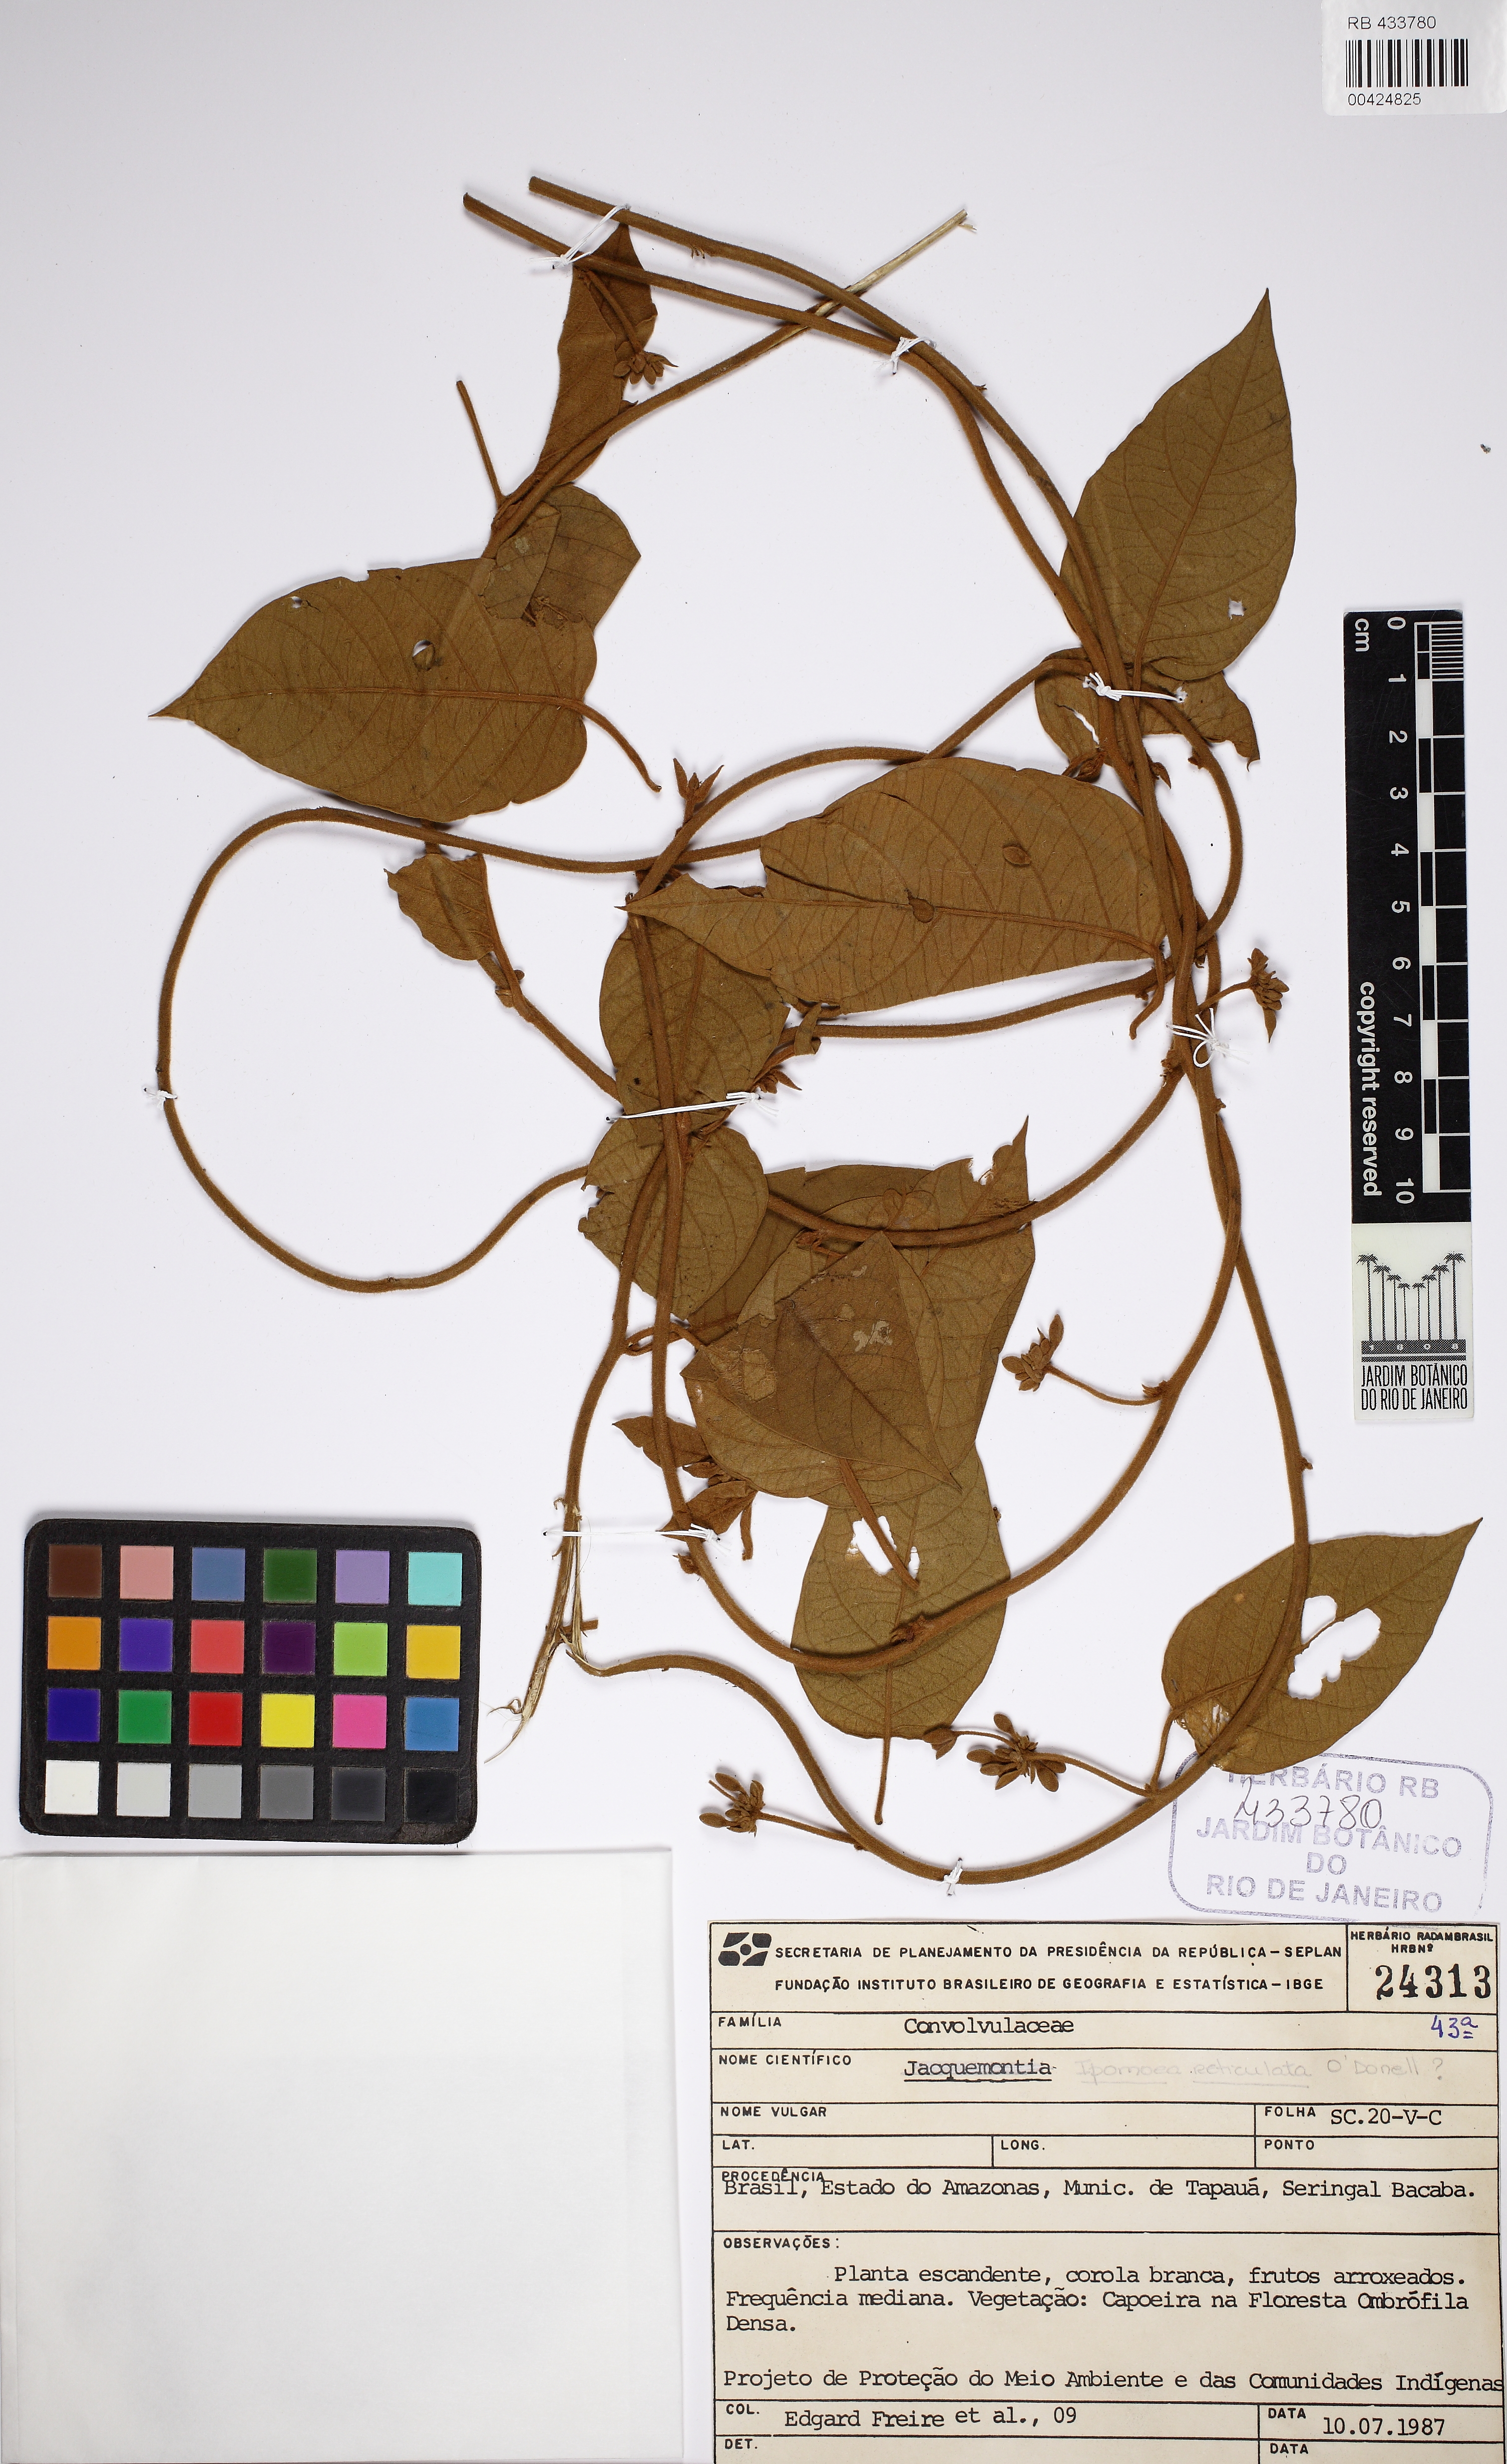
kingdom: Plantae
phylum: Tracheophyta
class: Magnoliopsida
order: Solanales
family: Convolvulaceae
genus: Bonamia
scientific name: Bonamia ferruginea
